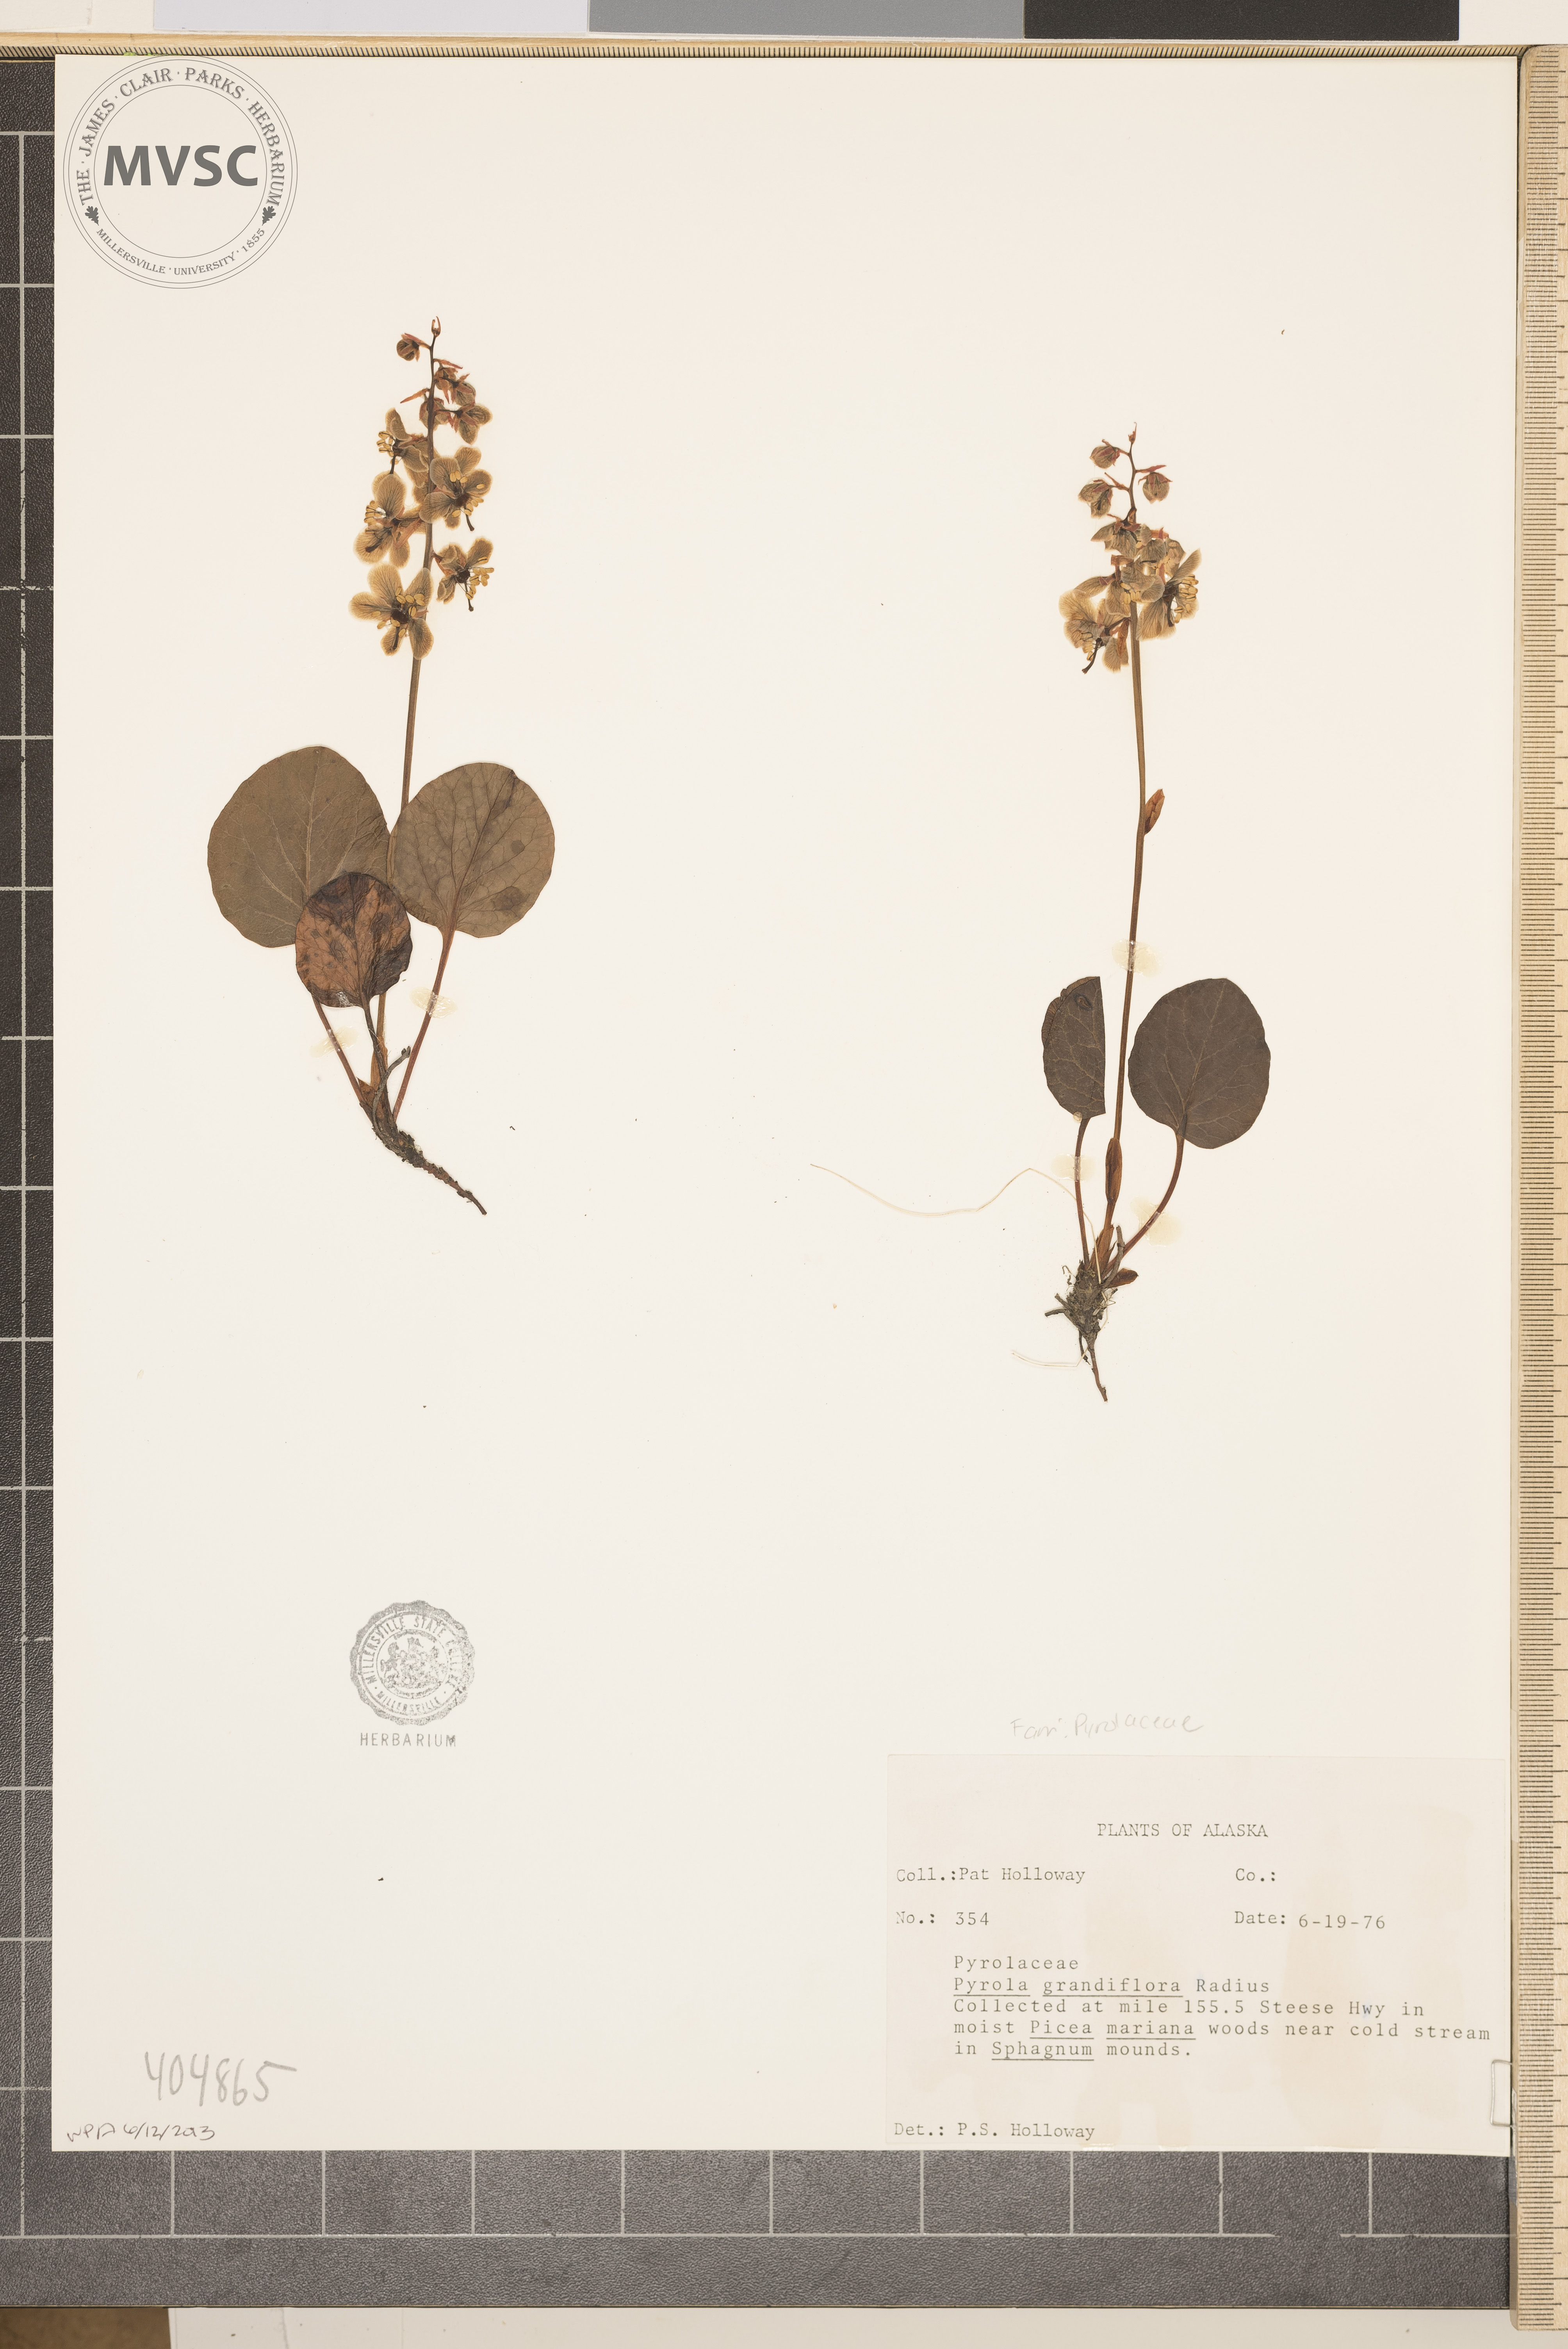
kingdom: Plantae
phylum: Tracheophyta
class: Magnoliopsida
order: Ericales
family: Ericaceae
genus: Pyrola
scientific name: Pyrola grandiflora
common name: Arctic pyrola
